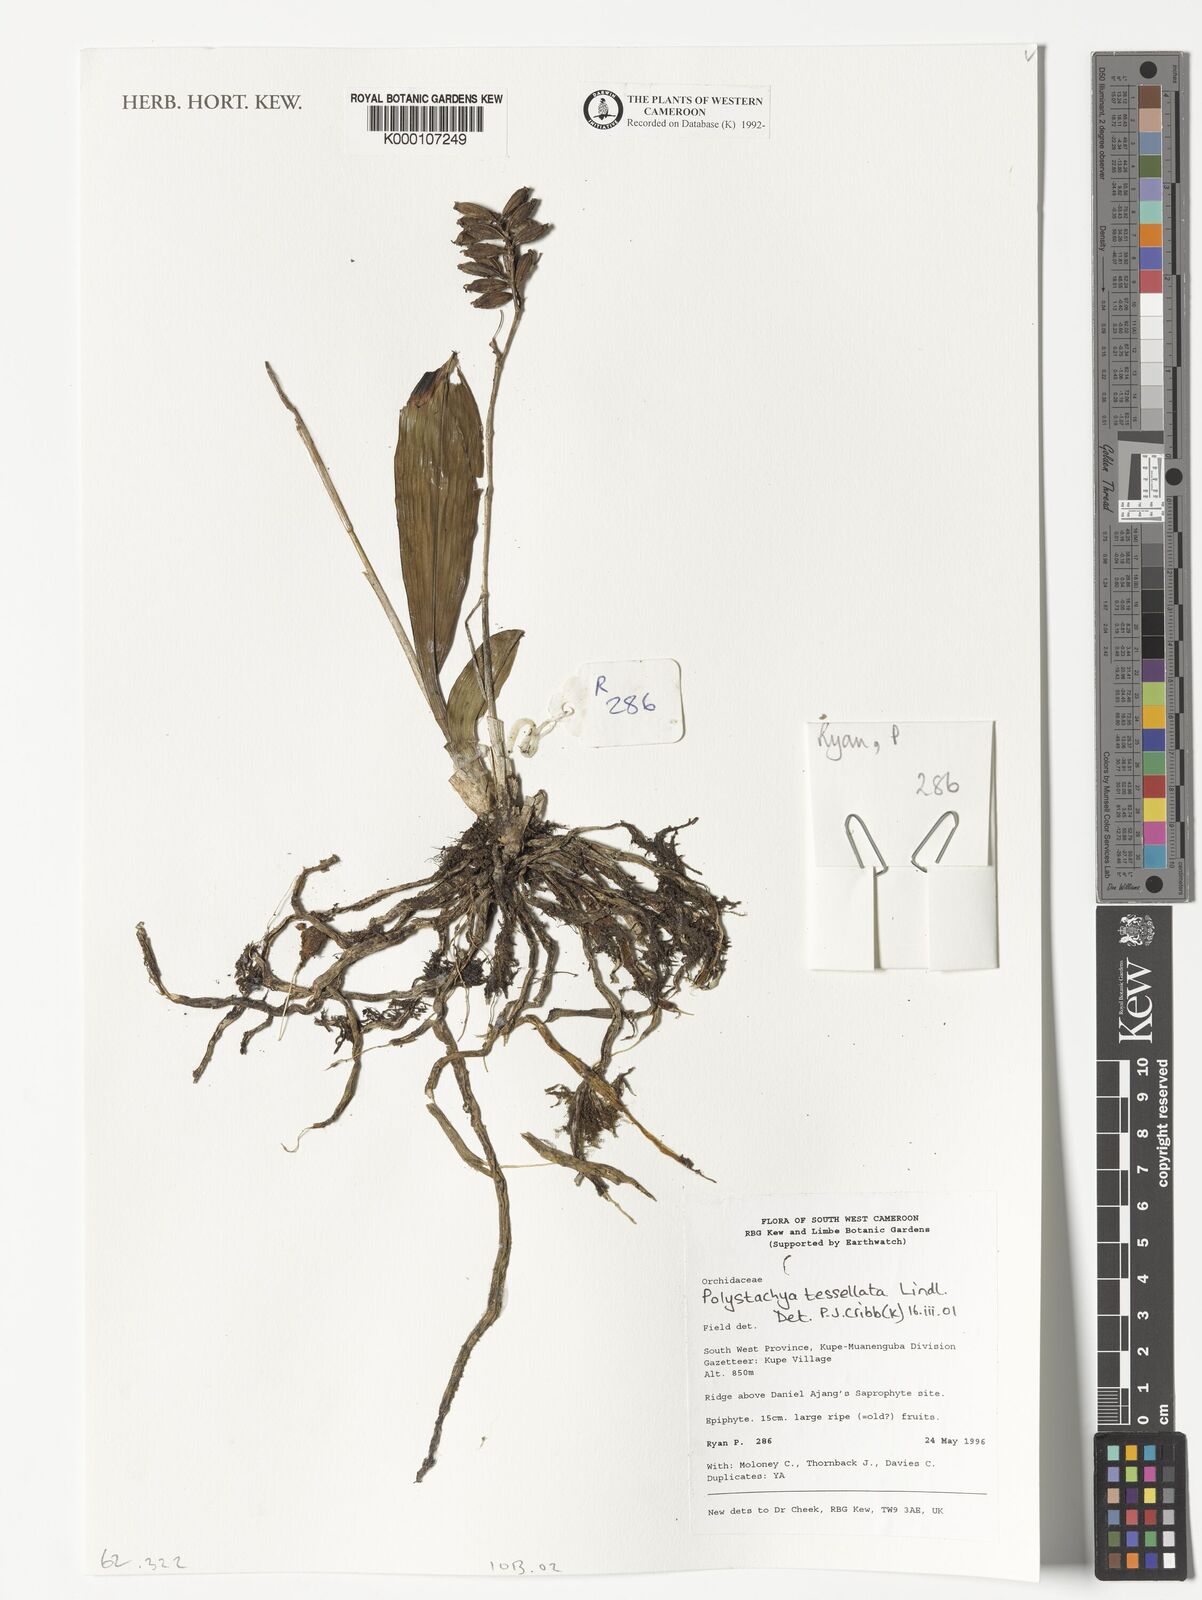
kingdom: Plantae
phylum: Tracheophyta
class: Liliopsida
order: Asparagales
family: Orchidaceae
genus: Polystachya
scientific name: Polystachya concreta
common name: Greater yellowspike orchid
